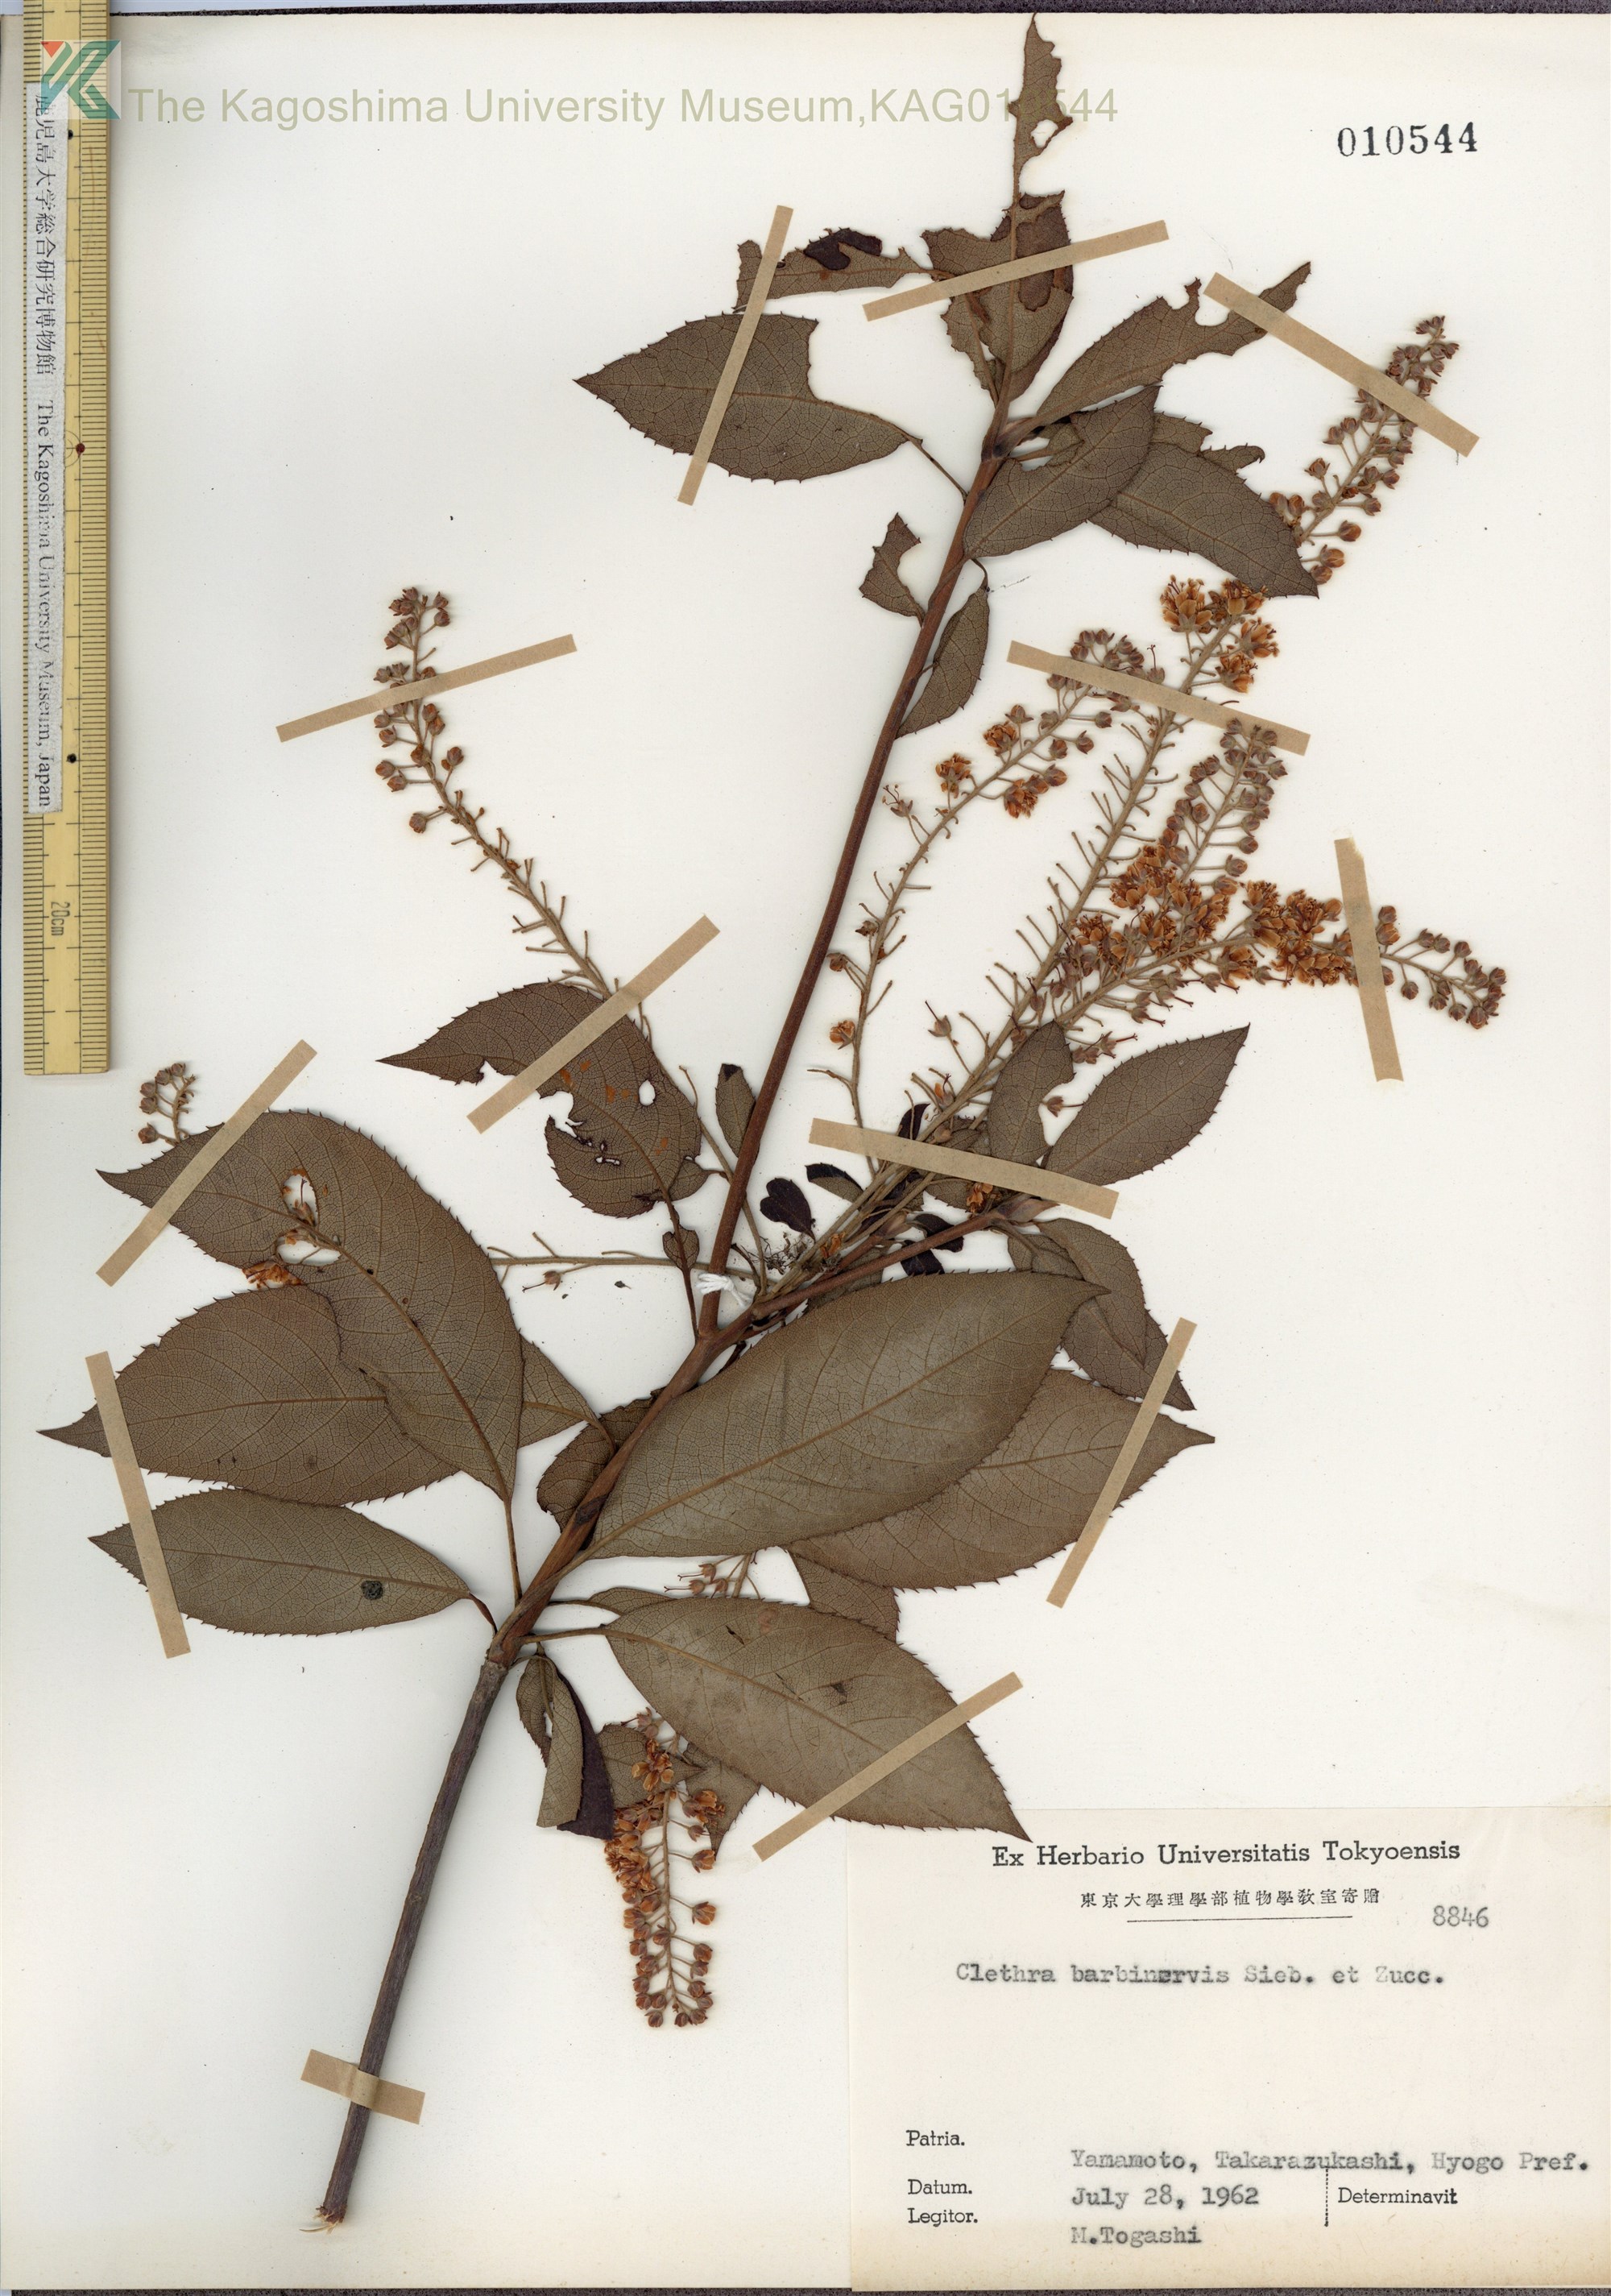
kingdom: Plantae
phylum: Tracheophyta
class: Magnoliopsida
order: Ericales
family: Clethraceae
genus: Clethra
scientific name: Clethra barbinervis
